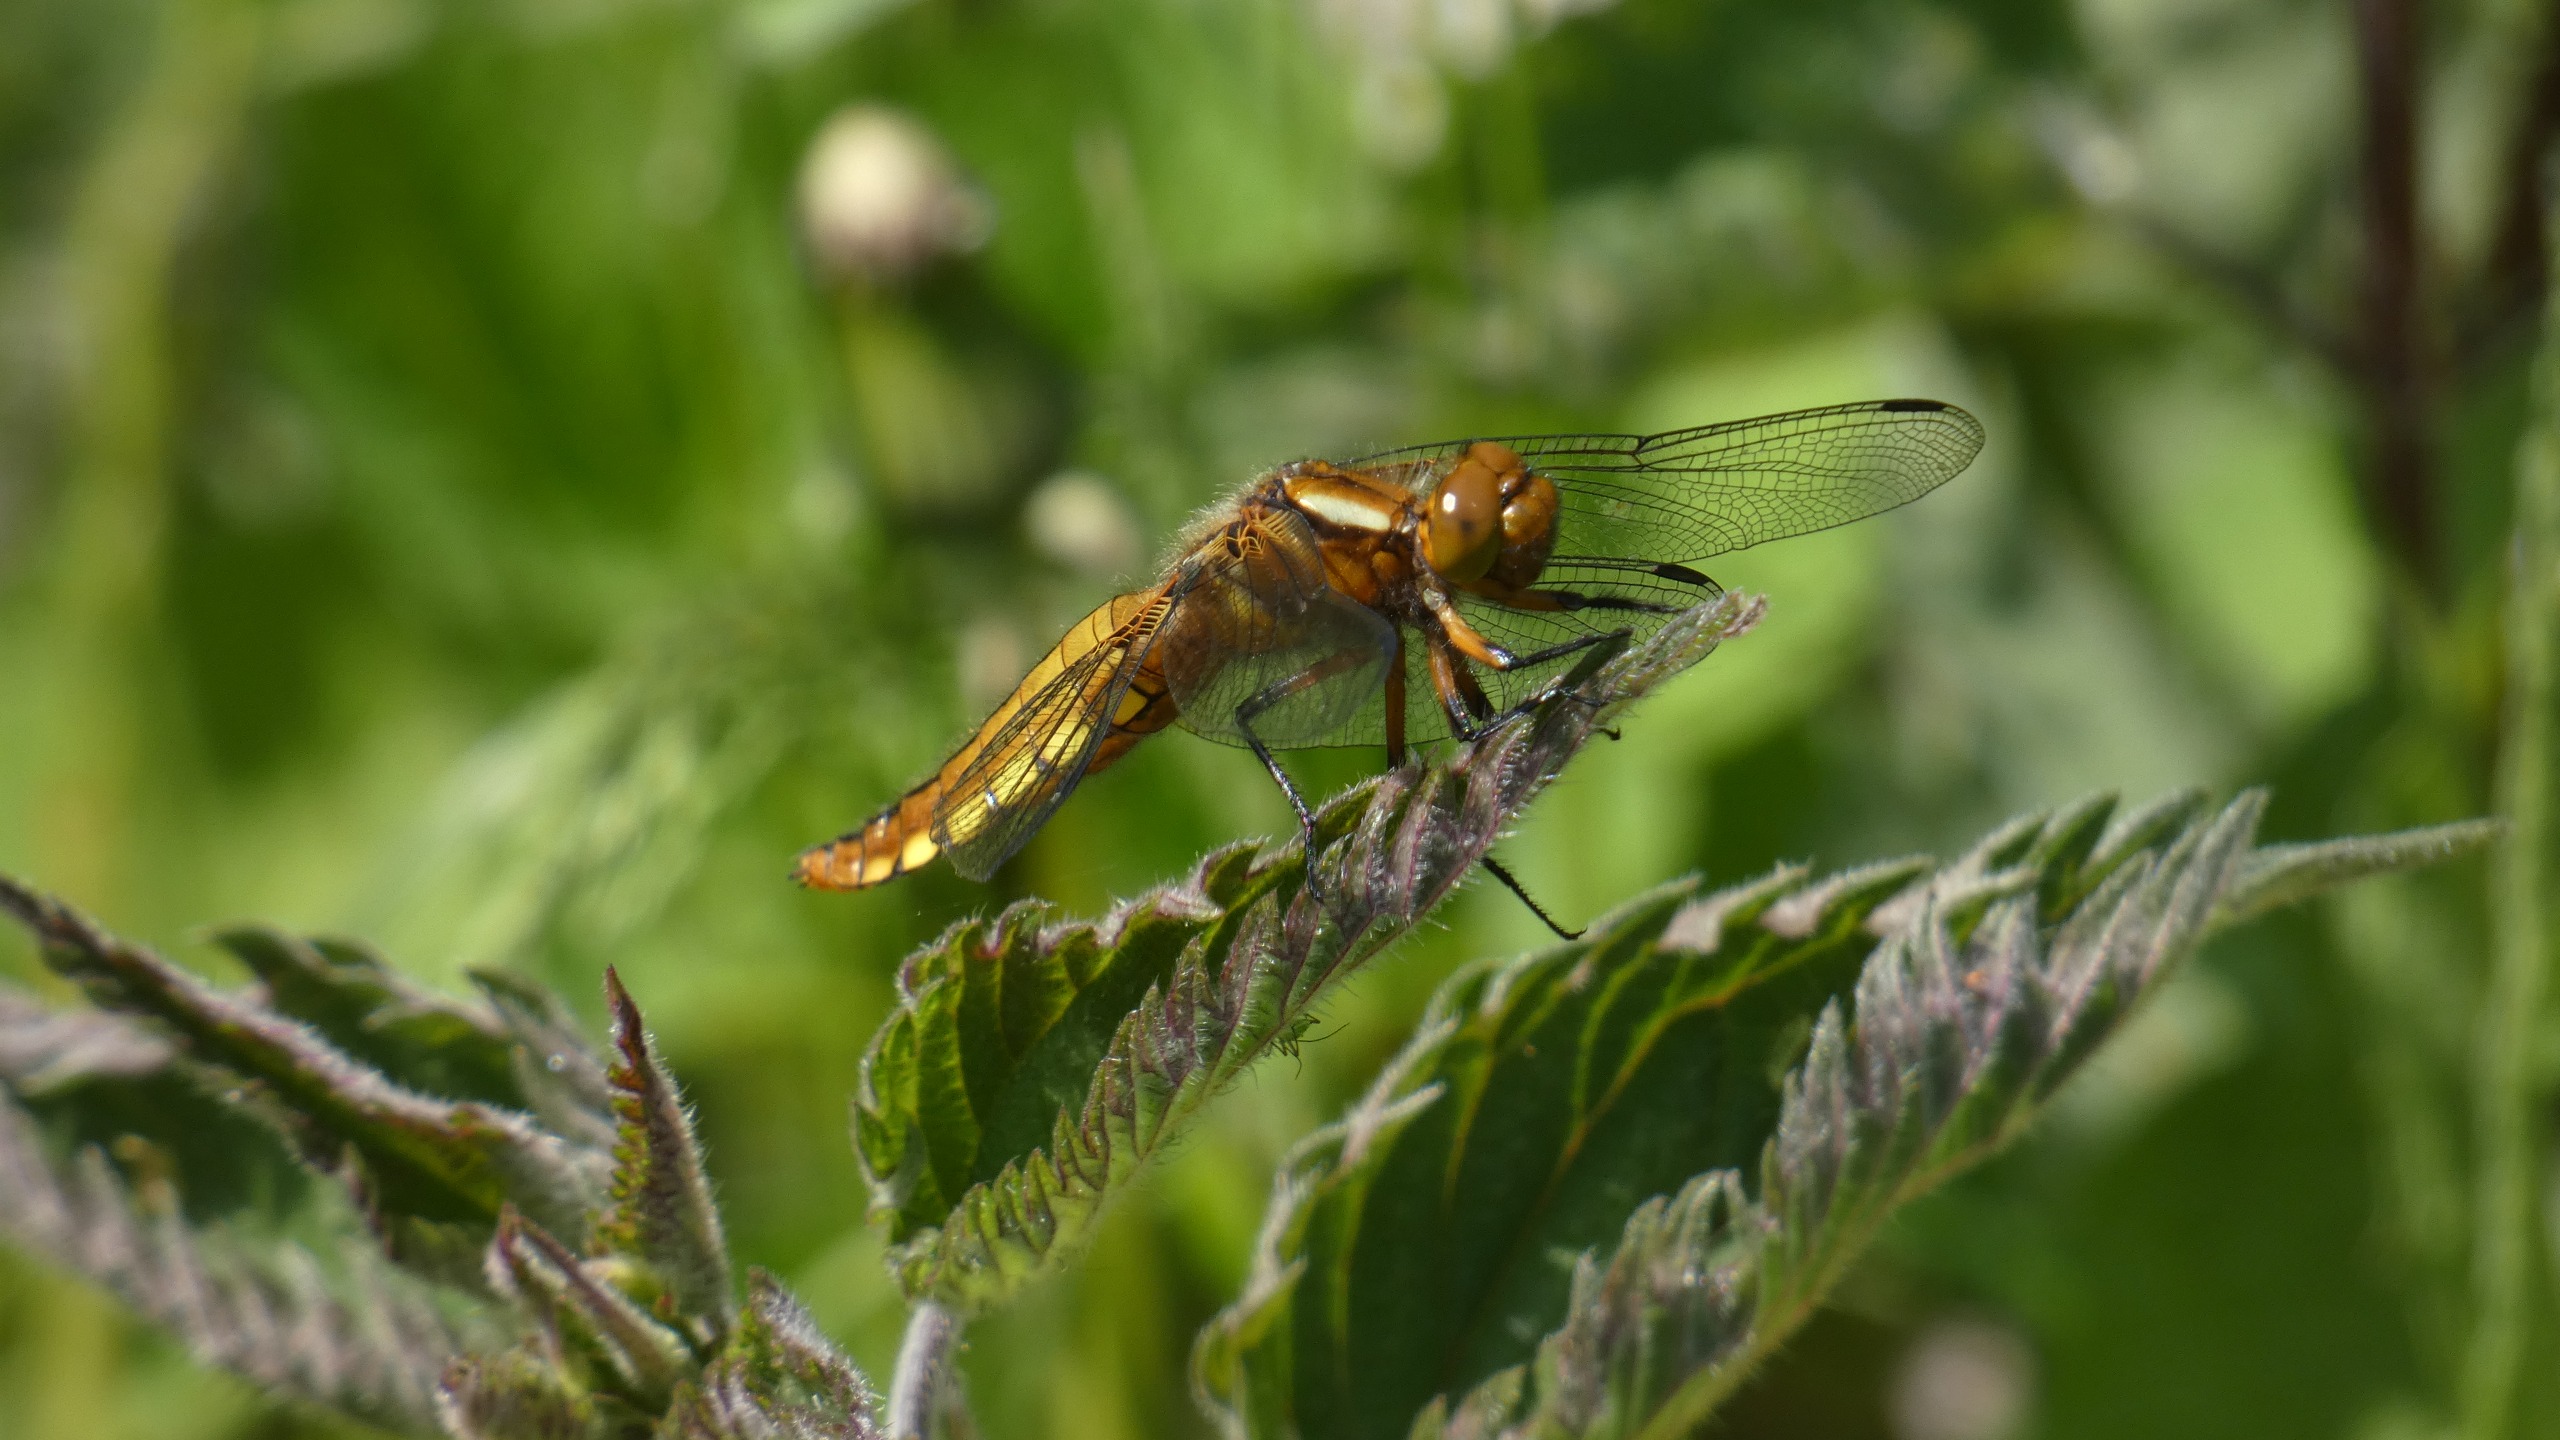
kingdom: Animalia
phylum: Arthropoda
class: Insecta
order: Odonata
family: Libellulidae
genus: Libellula
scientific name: Libellula depressa
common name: Blå libel
